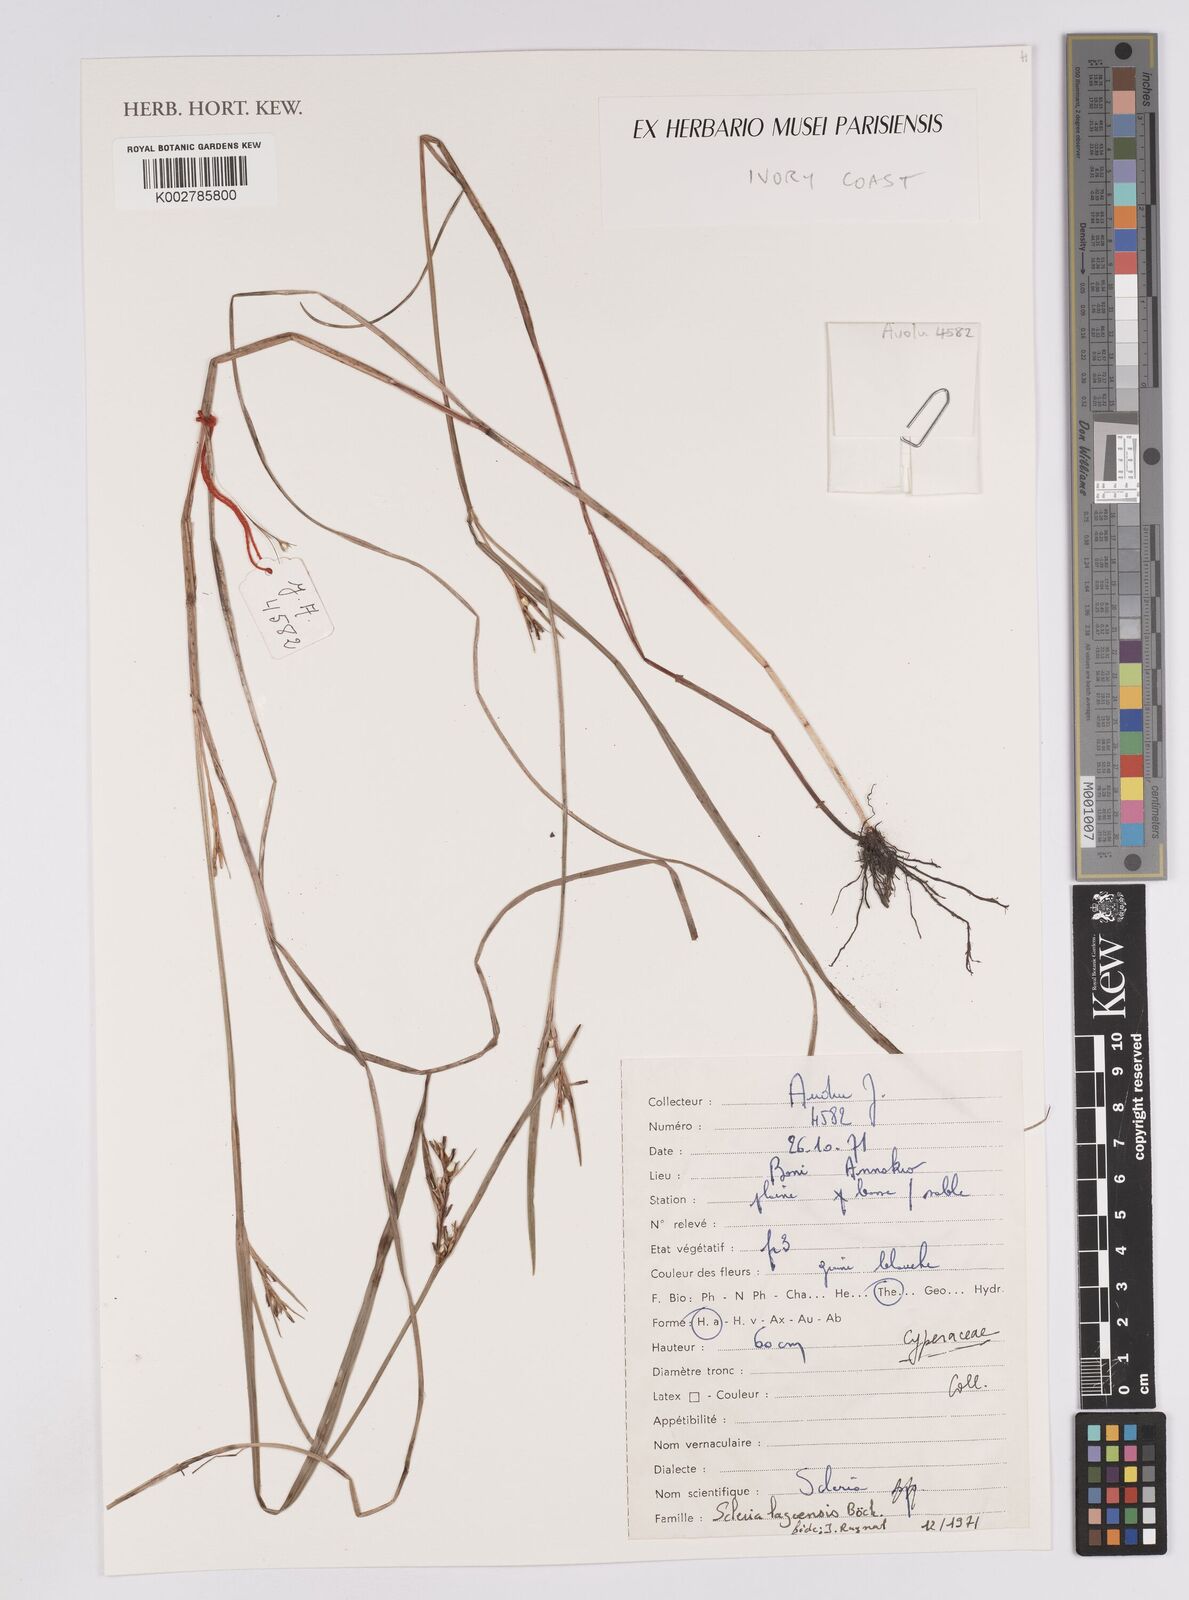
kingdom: Plantae
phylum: Tracheophyta
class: Liliopsida
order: Poales
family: Cyperaceae
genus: Scleria
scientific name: Scleria lagoensis
